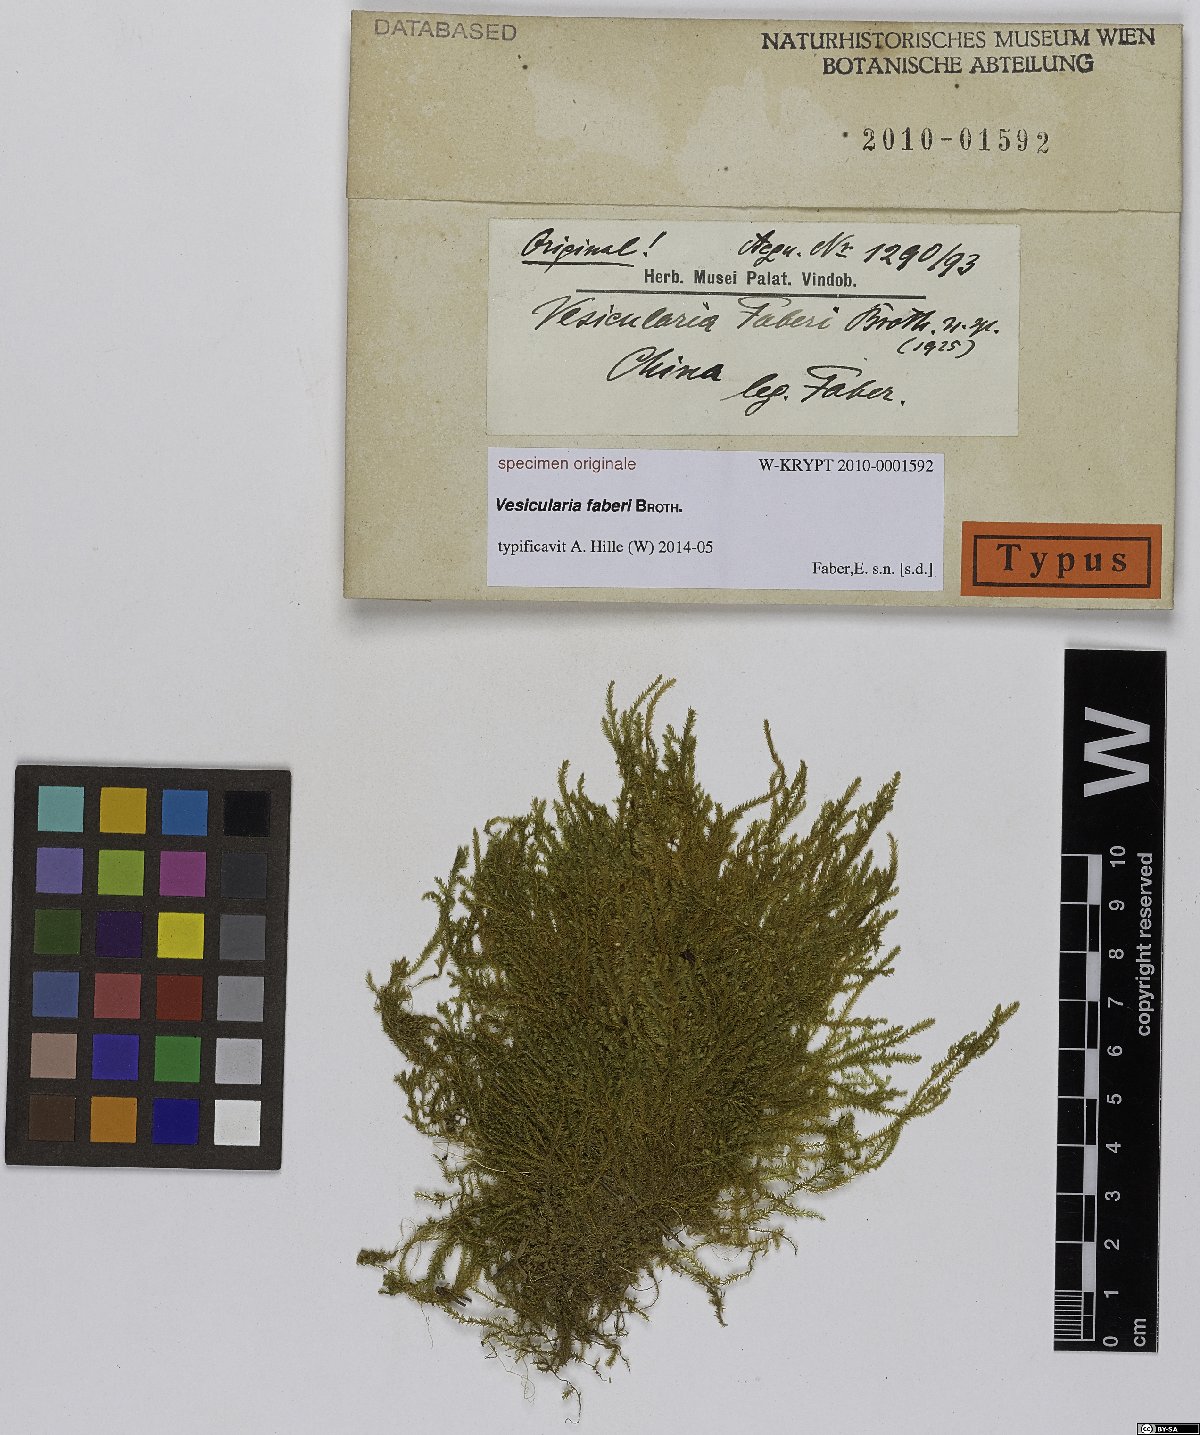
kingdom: Plantae
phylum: Bryophyta
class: Bryopsida
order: Hypnales
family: Hypnaceae
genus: Vesicularia
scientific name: Vesicularia
